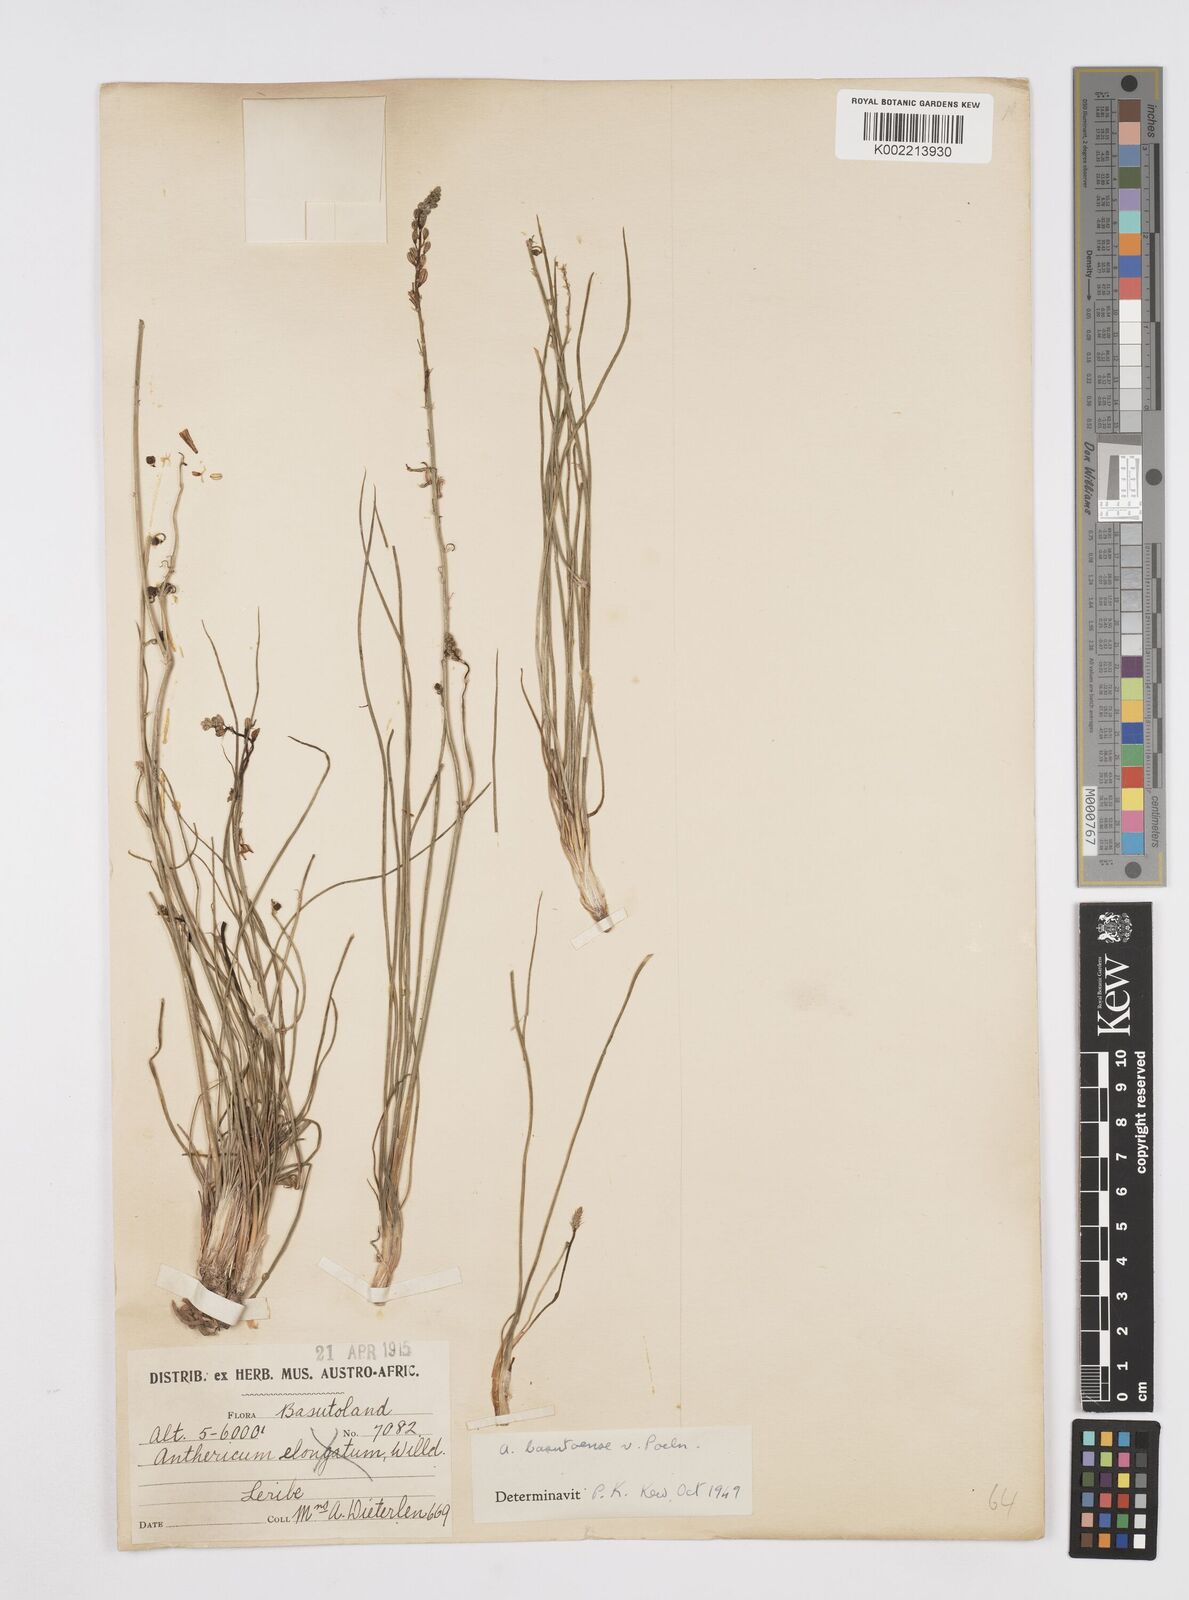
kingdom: Plantae
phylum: Tracheophyta
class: Liliopsida
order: Asparagales
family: Asphodelaceae
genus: Trachyandra
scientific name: Trachyandra asperata
